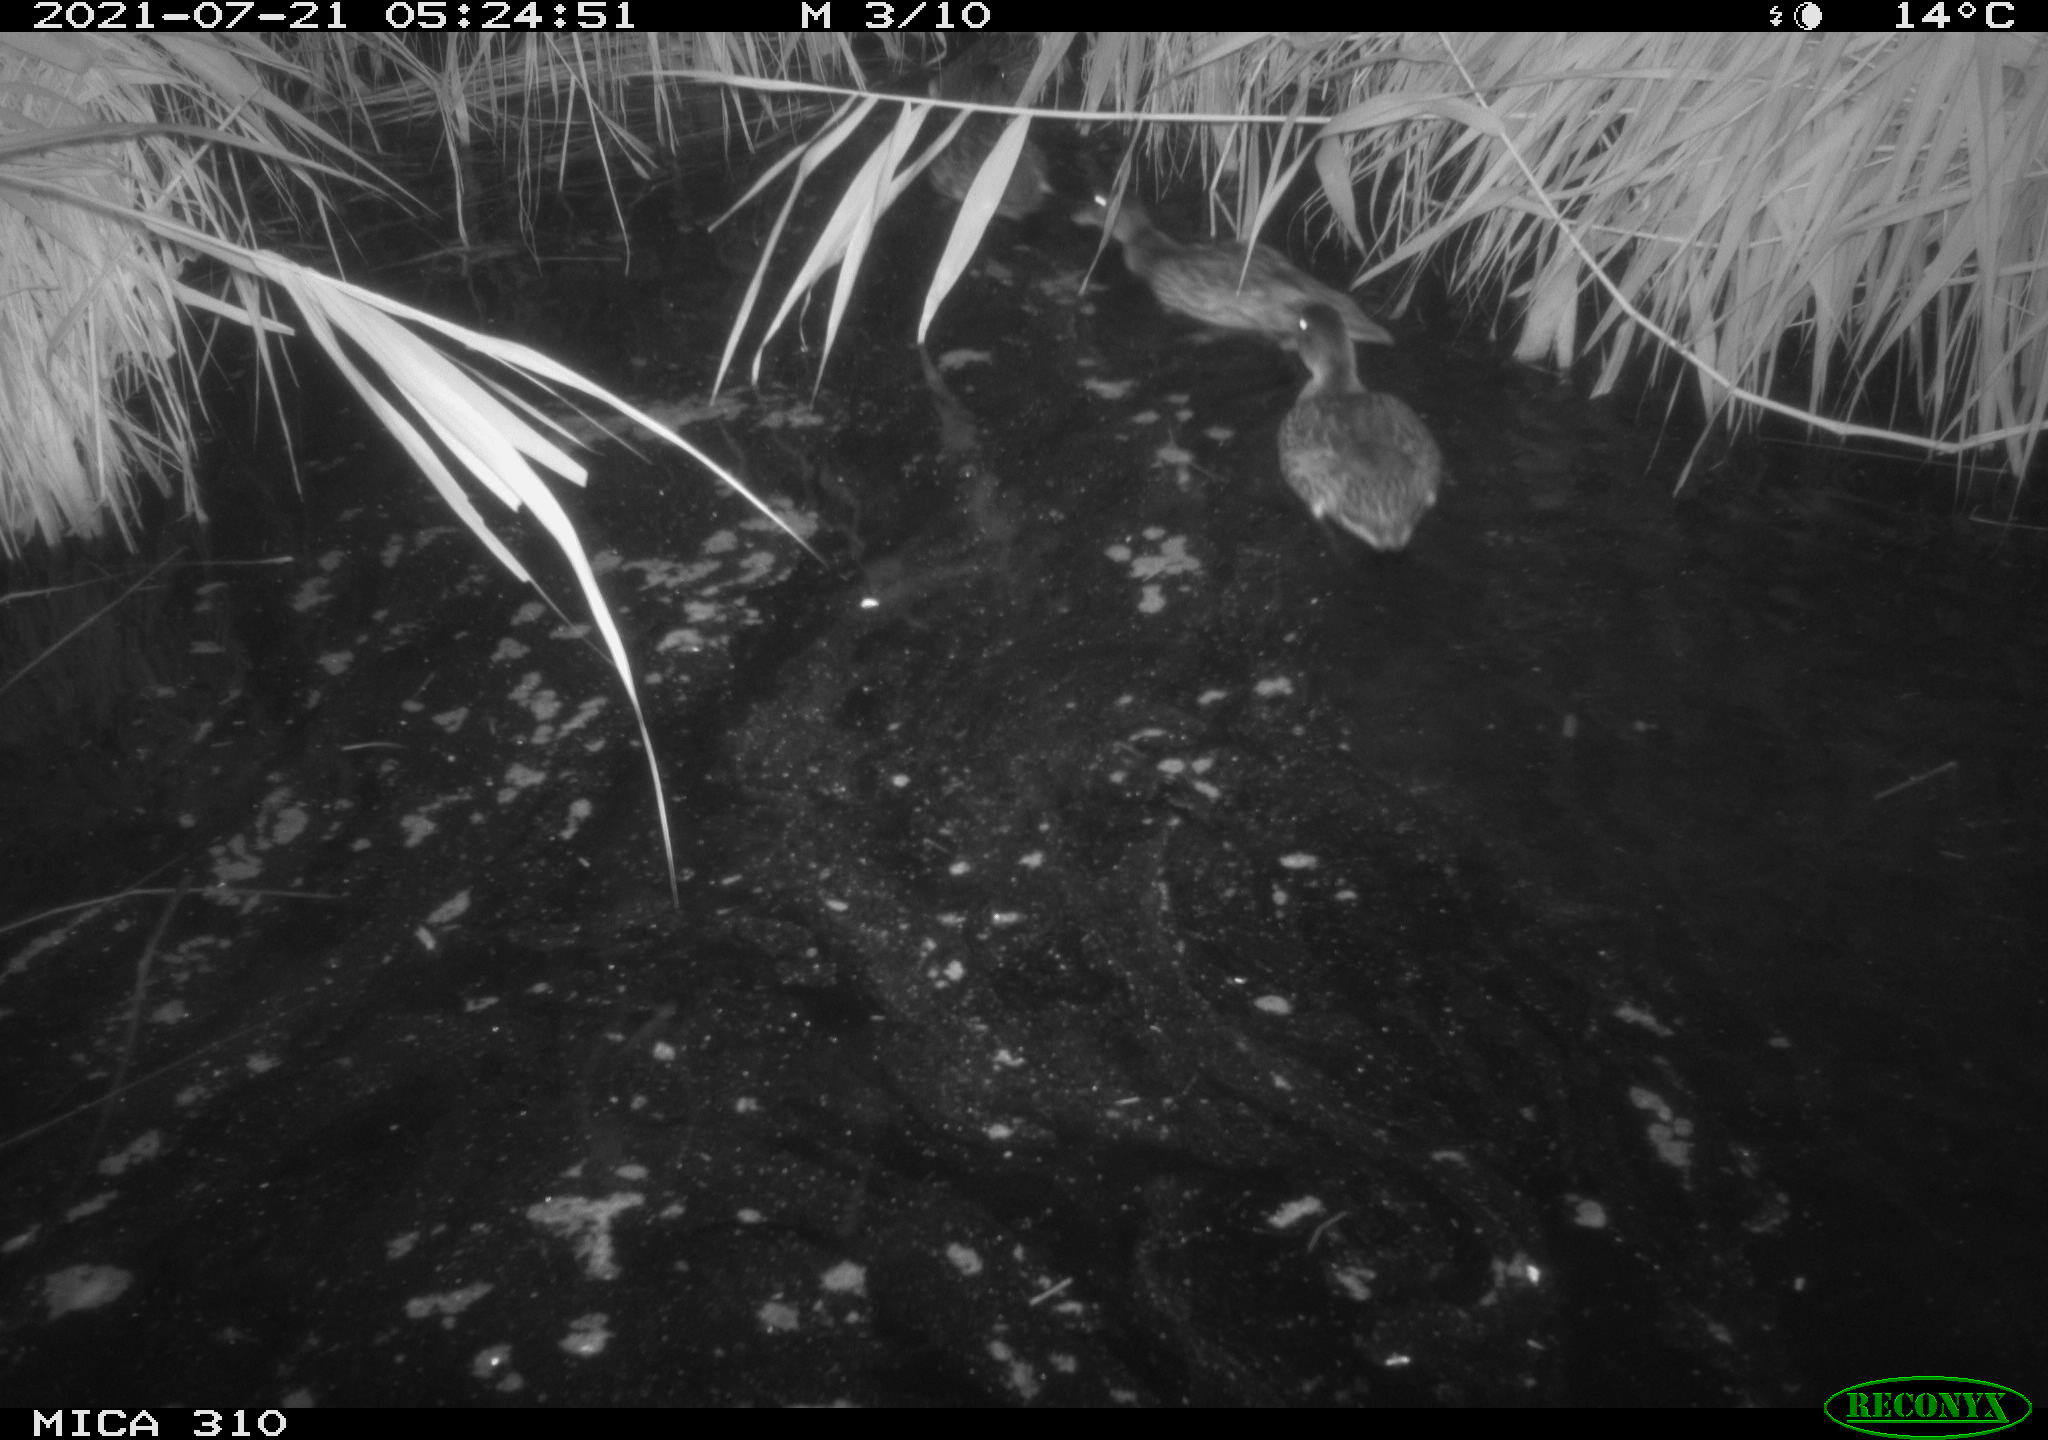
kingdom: Animalia
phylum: Chordata
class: Aves
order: Gruiformes
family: Rallidae
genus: Gallinula
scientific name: Gallinula chloropus
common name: Common moorhen
